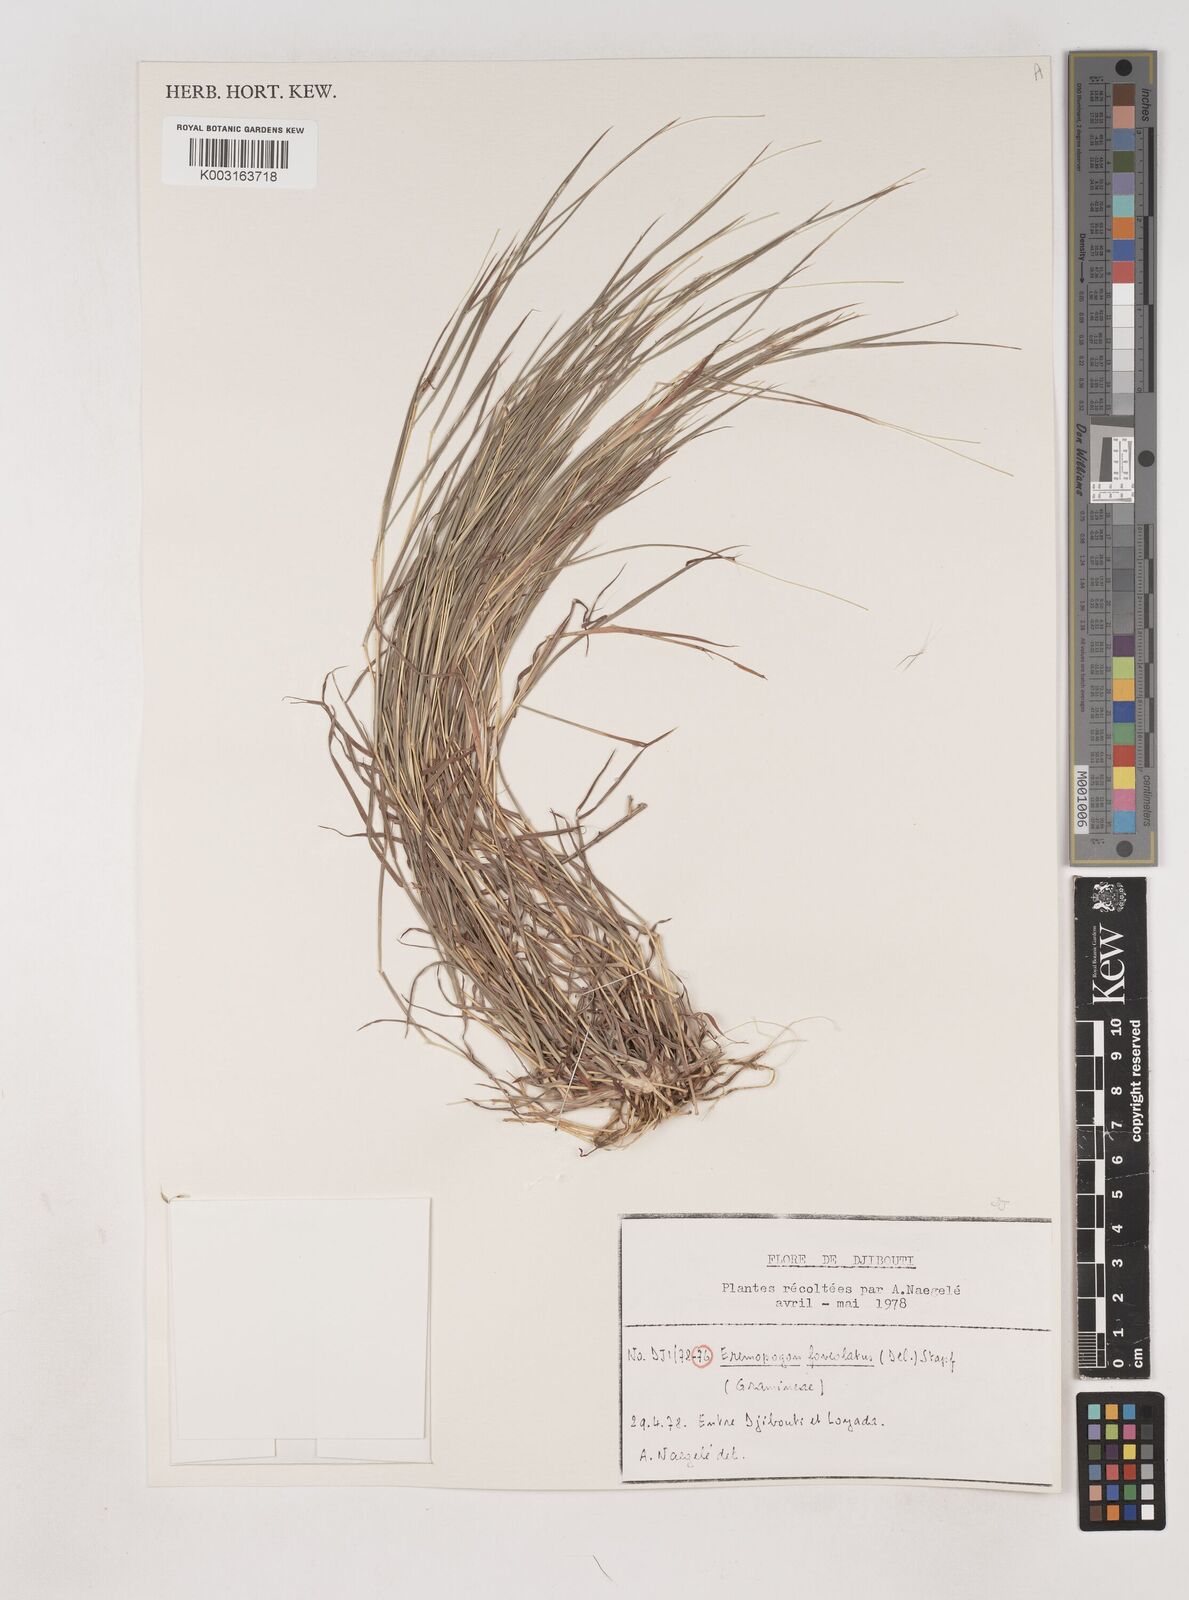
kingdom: Plantae
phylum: Tracheophyta
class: Liliopsida
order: Poales
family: Poaceae
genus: Dichanthium
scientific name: Dichanthium foveolatum
